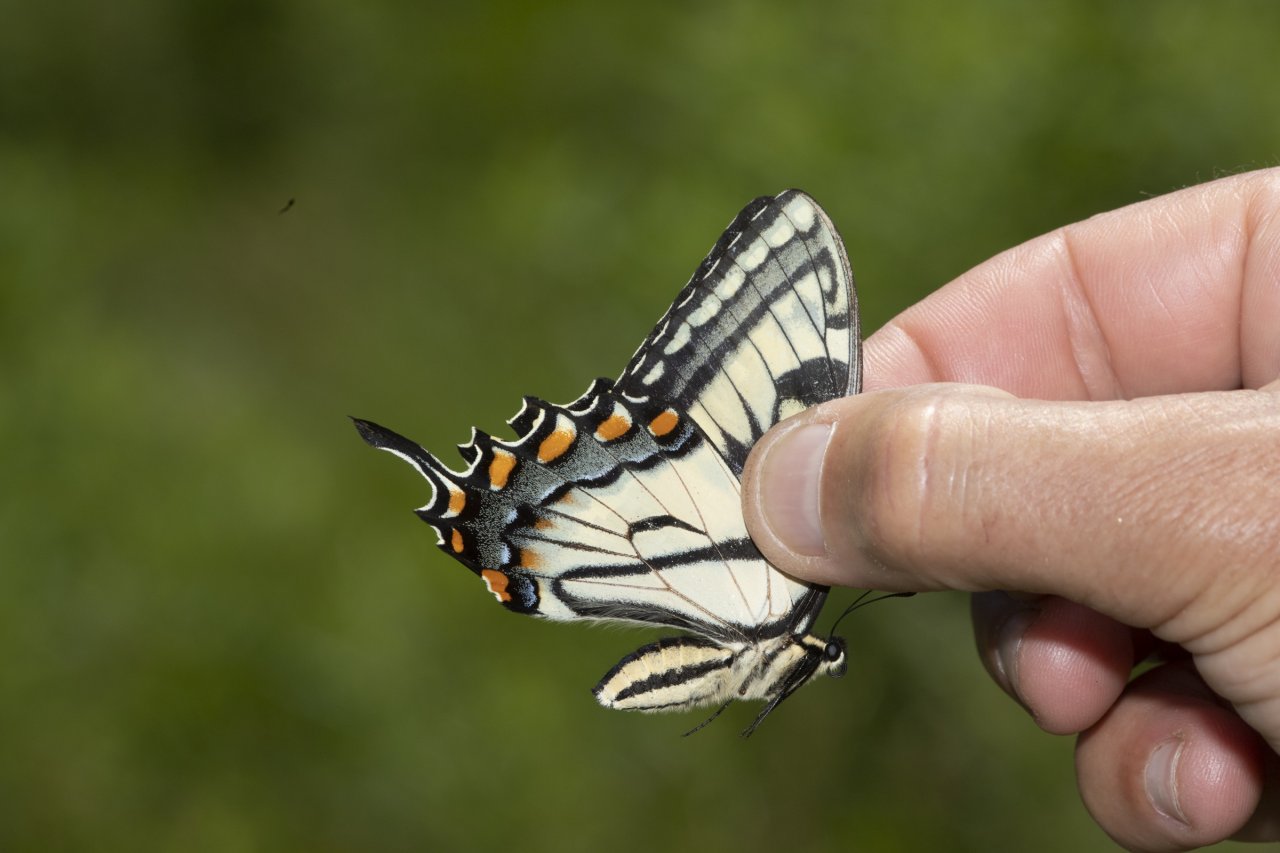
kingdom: Animalia
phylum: Arthropoda
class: Insecta
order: Lepidoptera
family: Papilionidae
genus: Papilio
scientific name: Papilio
